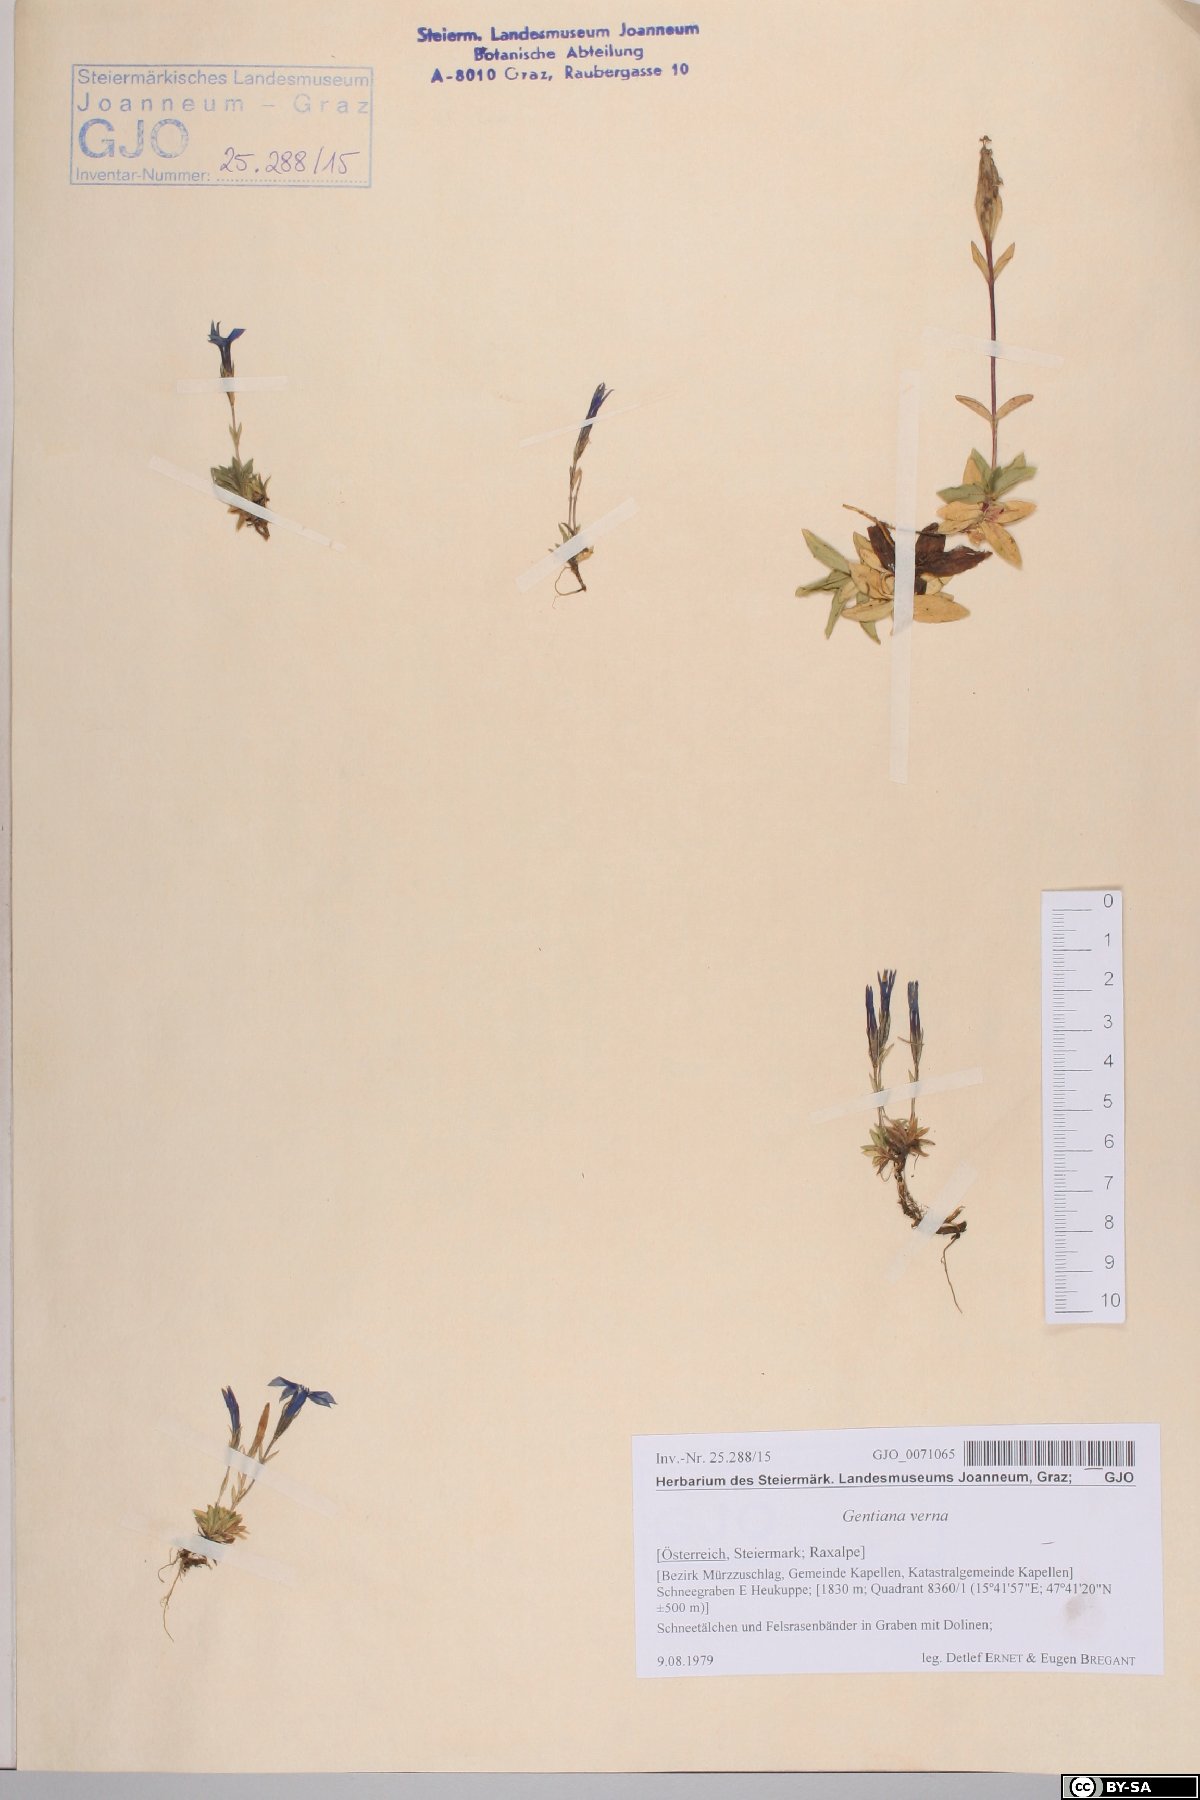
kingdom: Plantae
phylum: Tracheophyta
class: Magnoliopsida
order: Gentianales
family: Gentianaceae
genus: Gentiana
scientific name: Gentiana verna
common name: Spring gentian
